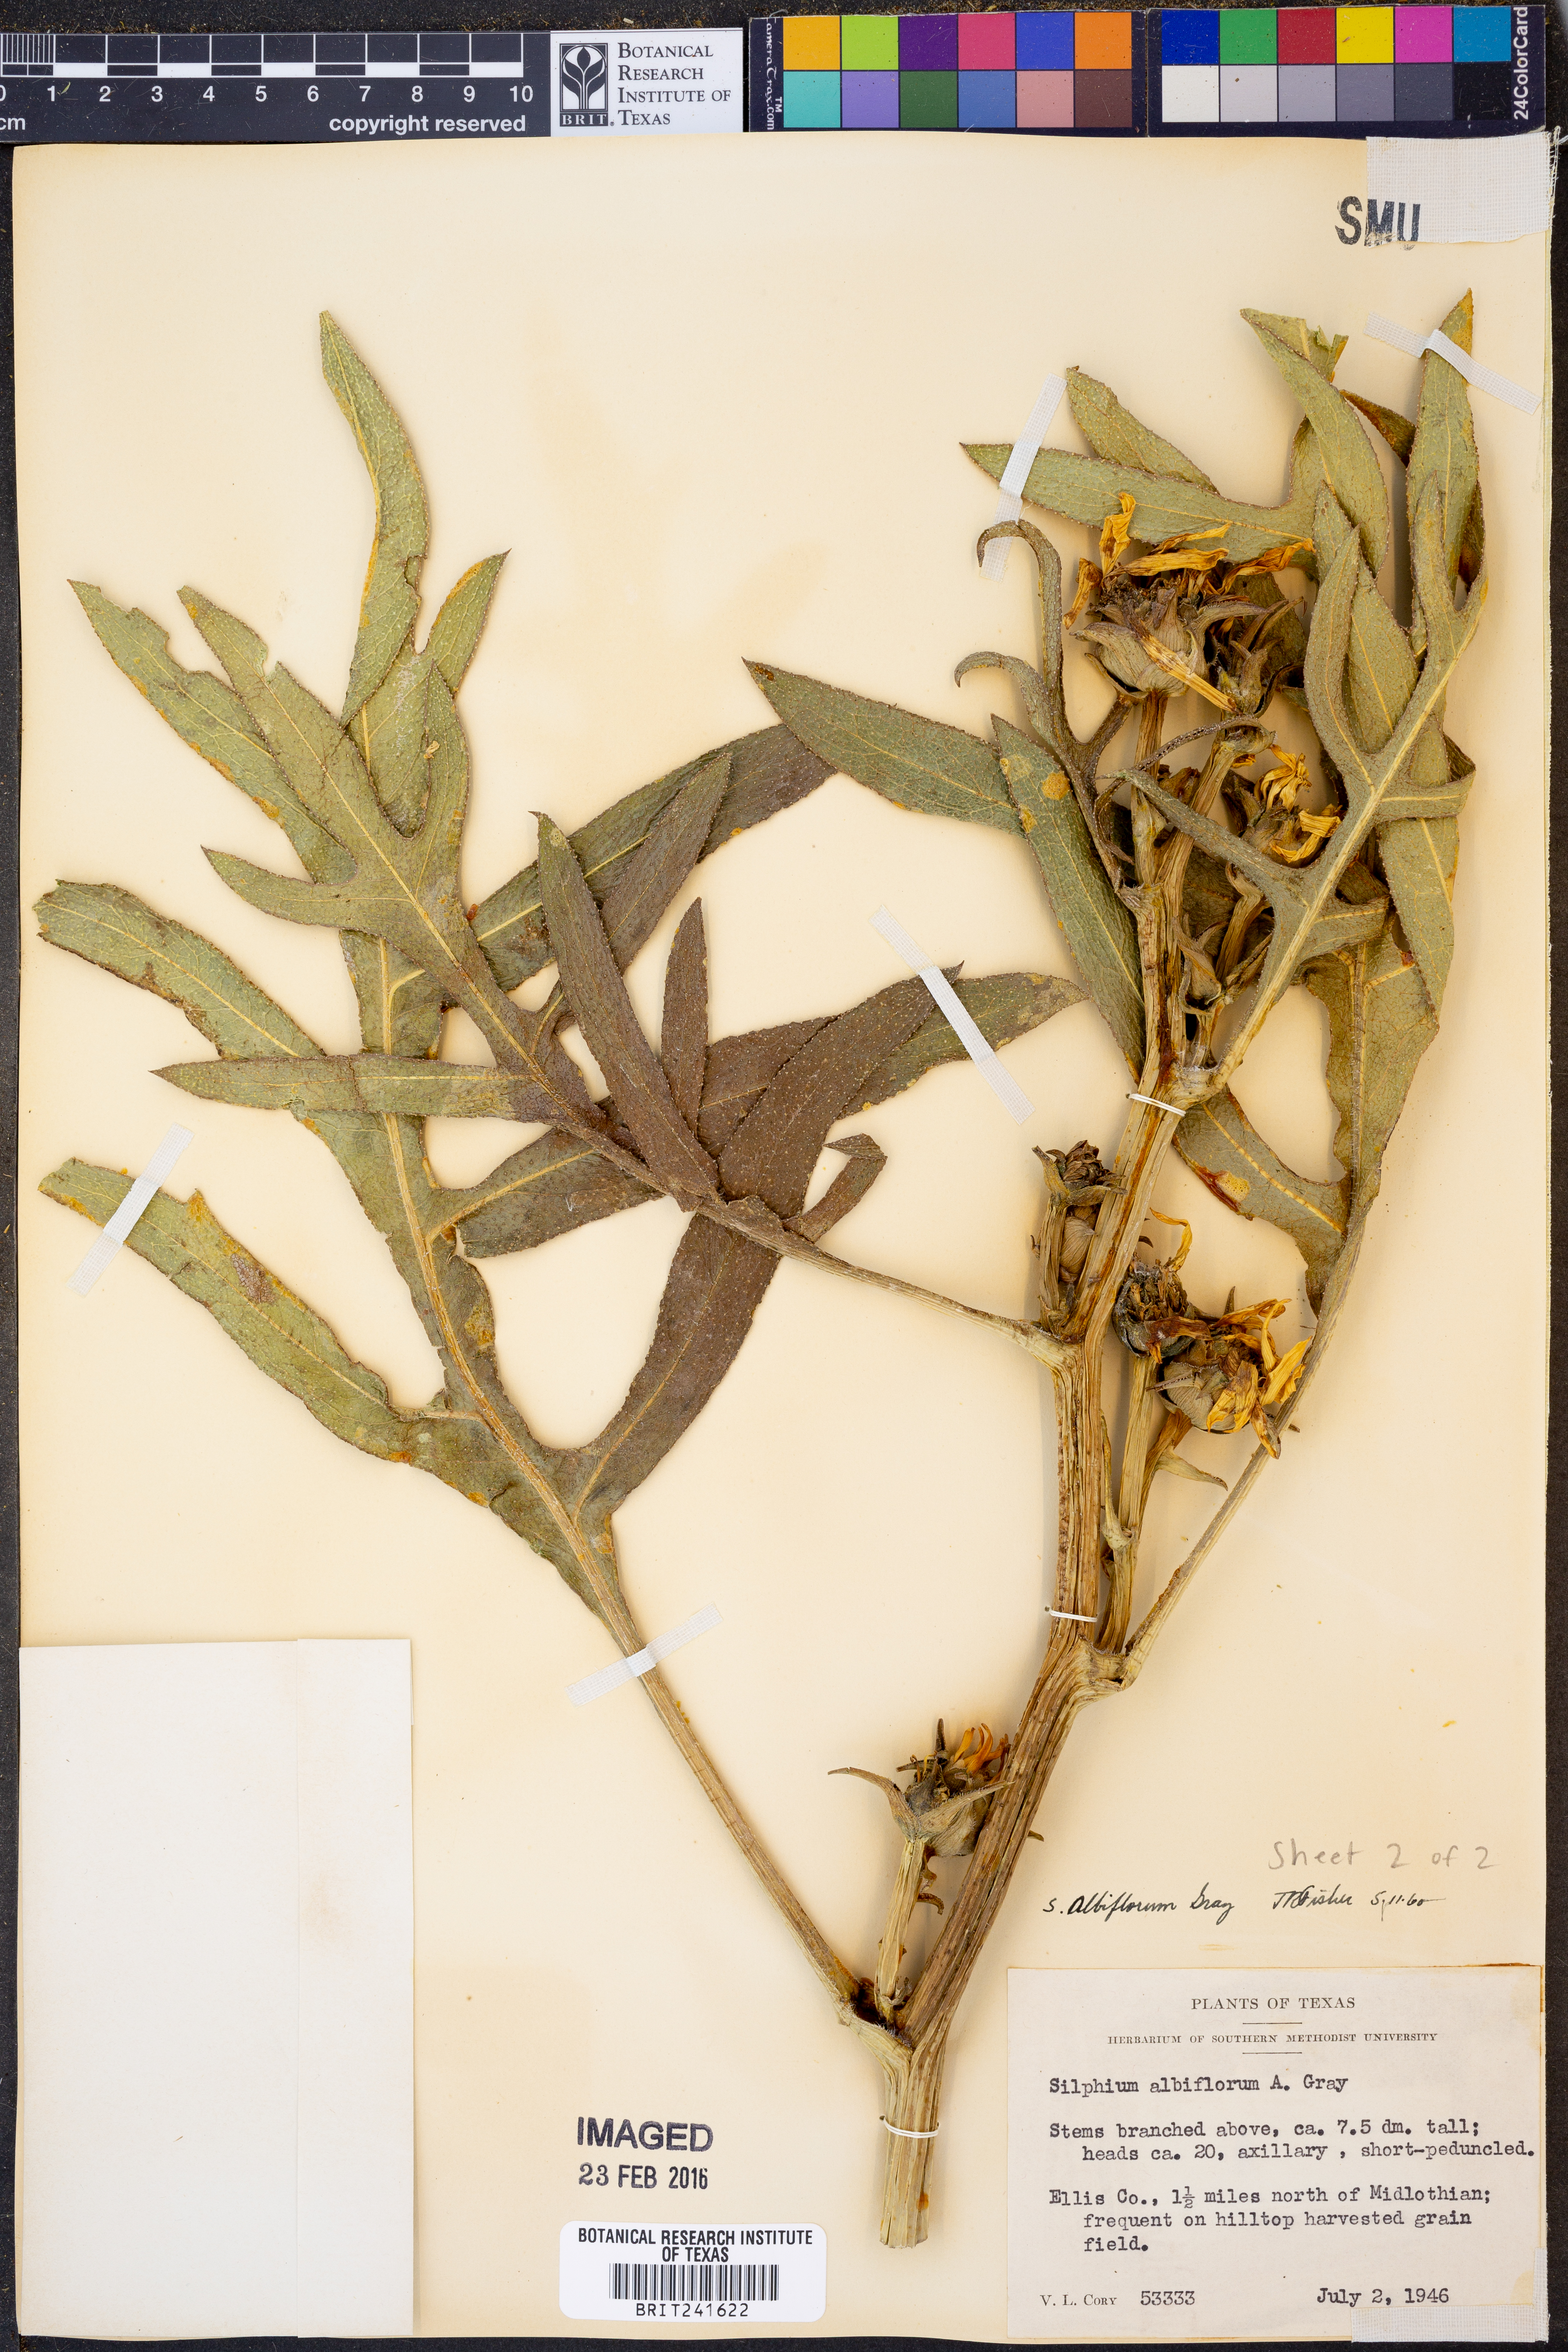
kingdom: Plantae
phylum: Tracheophyta
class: Magnoliopsida
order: Asterales
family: Asteraceae
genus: Silphium
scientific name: Silphium albiflorum
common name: White rosinweed
